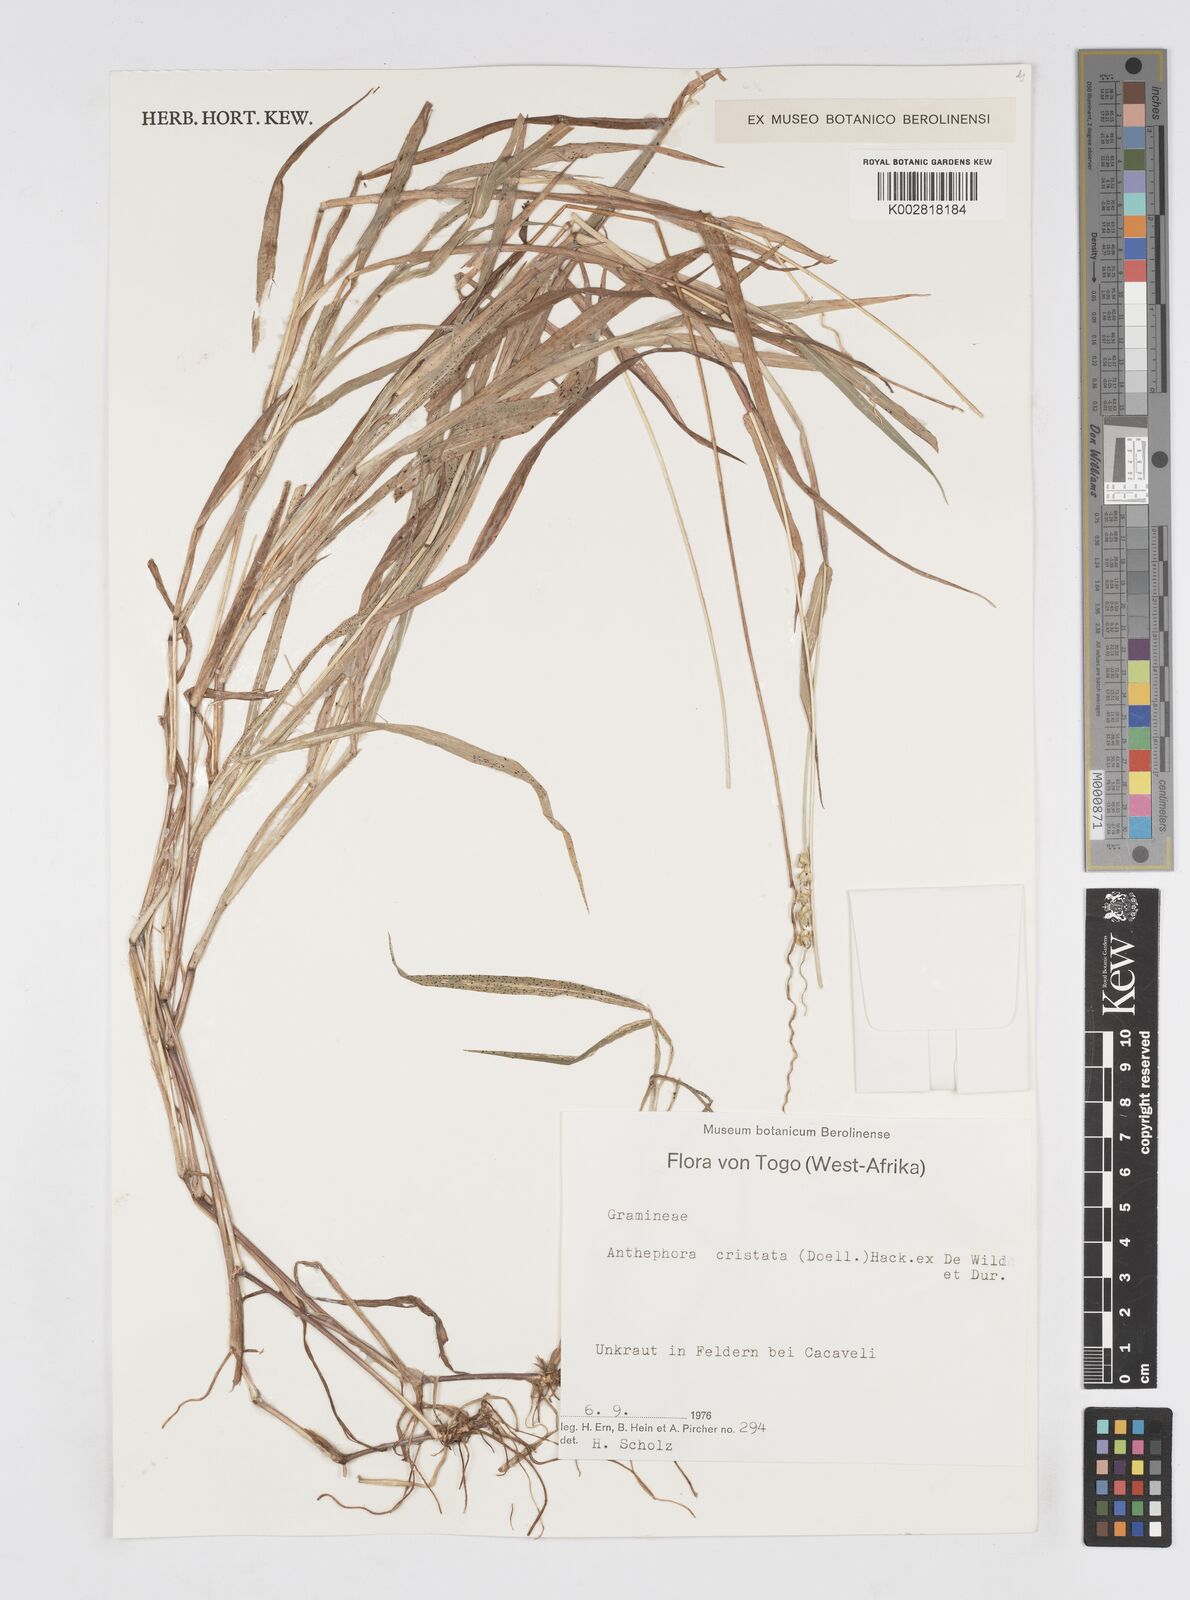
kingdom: Plantae
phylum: Tracheophyta
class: Liliopsida
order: Poales
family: Poaceae
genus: Anthephora
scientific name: Anthephora cristata
